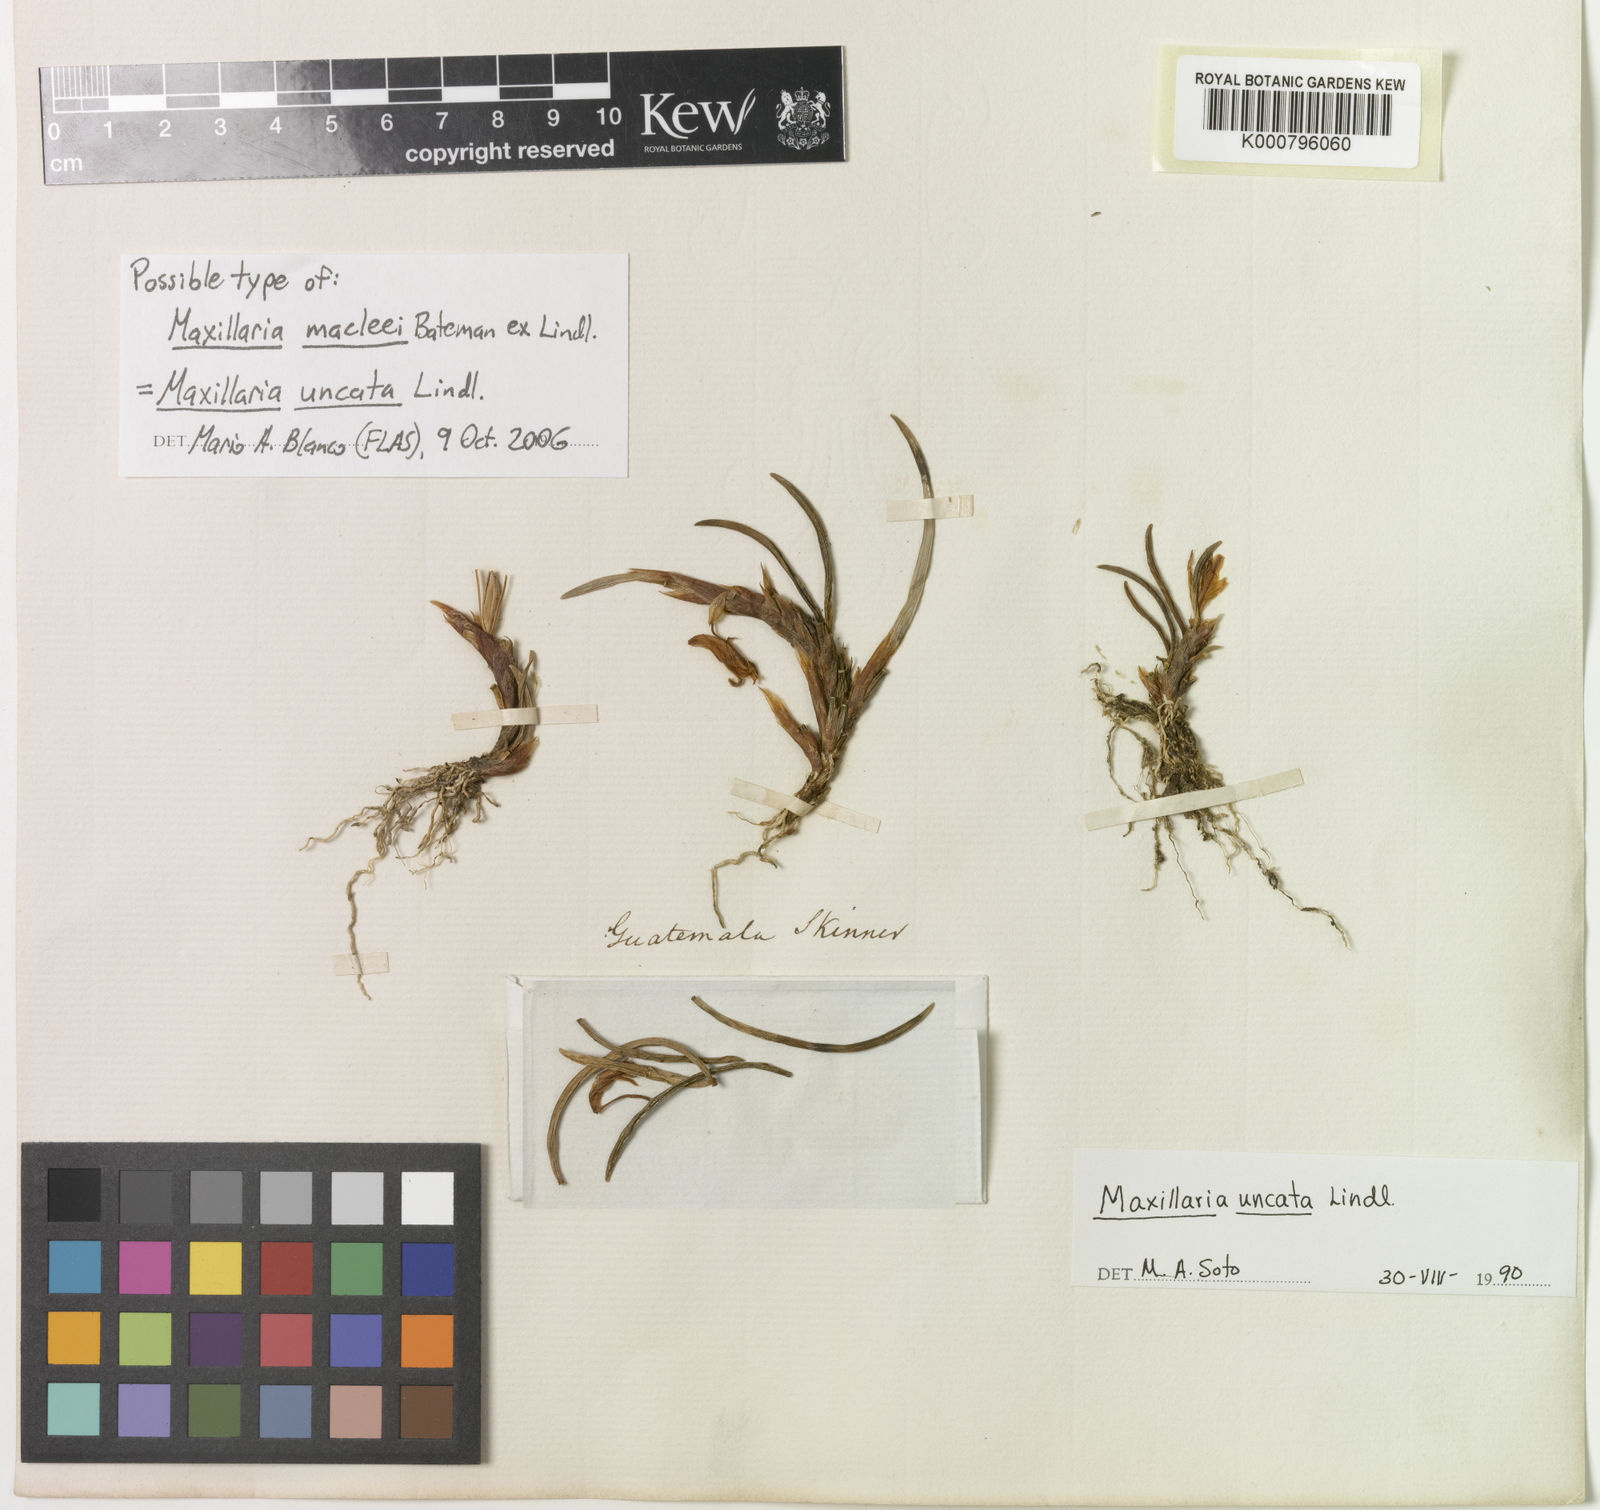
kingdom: Plantae
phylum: Tracheophyta
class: Liliopsida
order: Asparagales
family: Orchidaceae
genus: Maxillaria
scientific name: Maxillaria uncata
